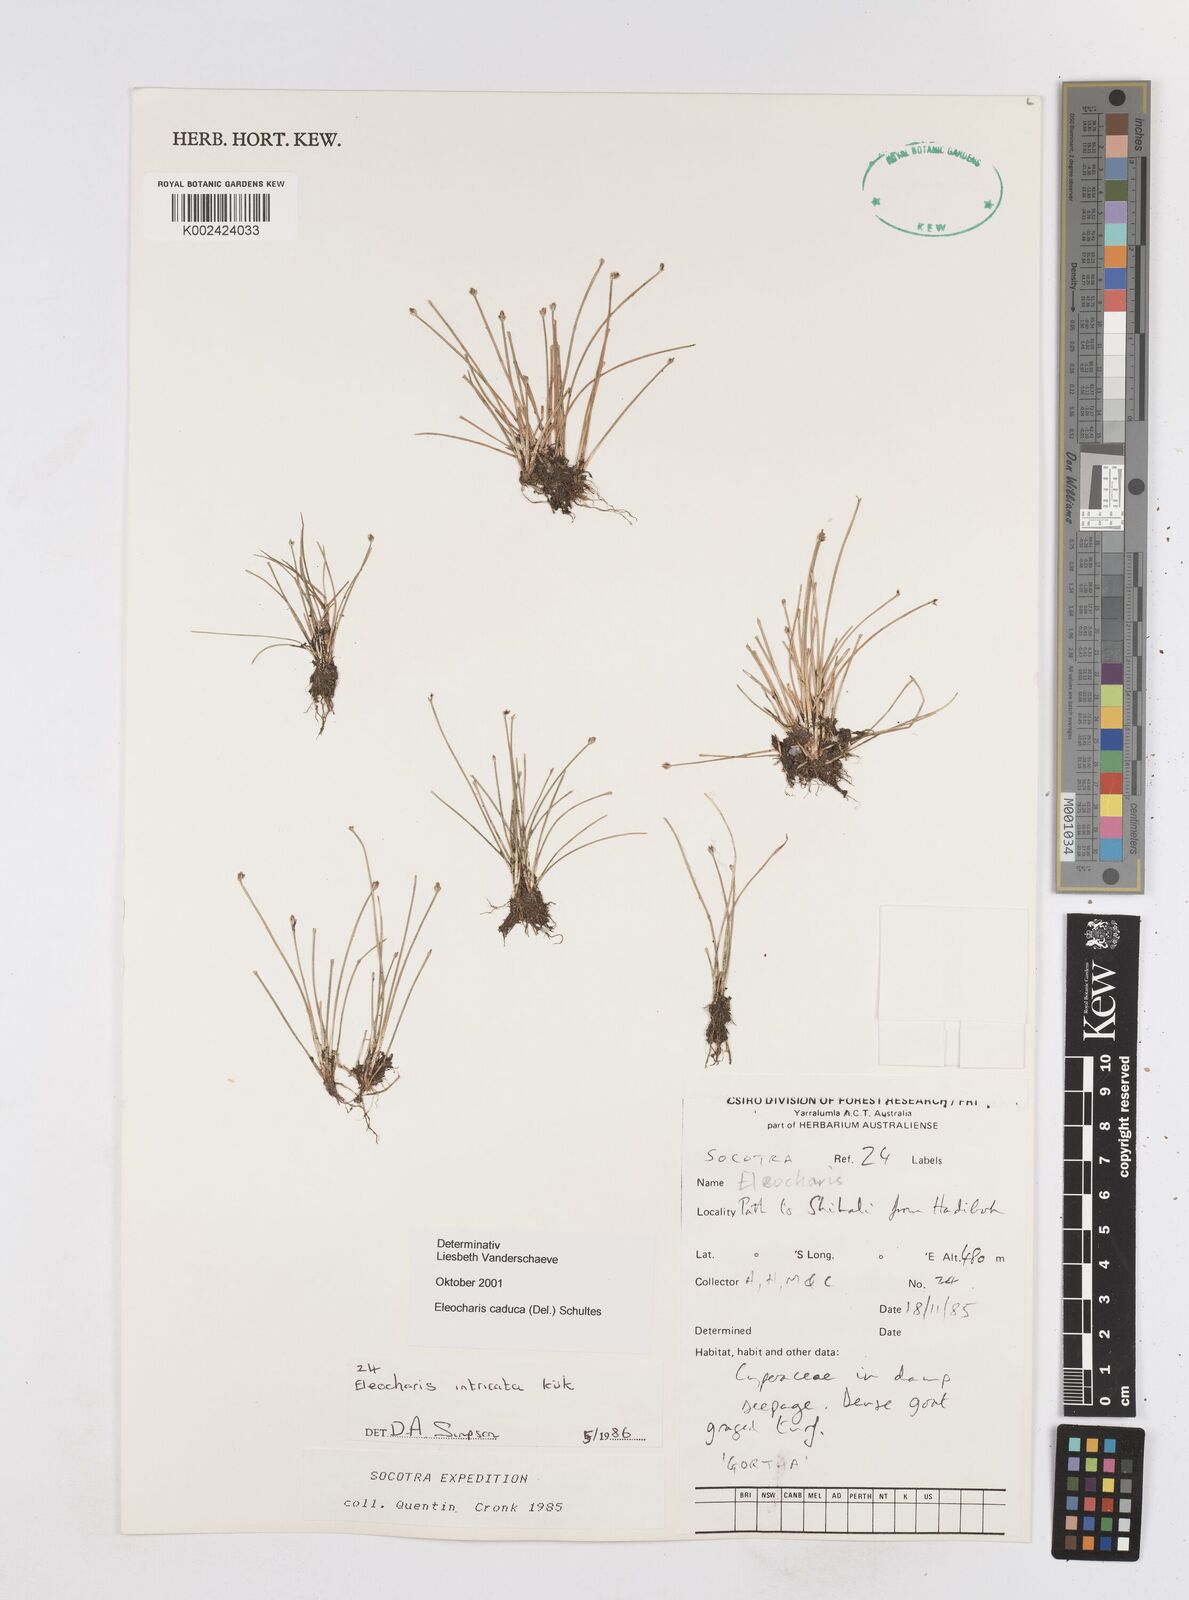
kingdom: Plantae
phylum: Tracheophyta
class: Liliopsida
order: Poales
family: Cyperaceae
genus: Eleocharis
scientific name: Eleocharis caduca
